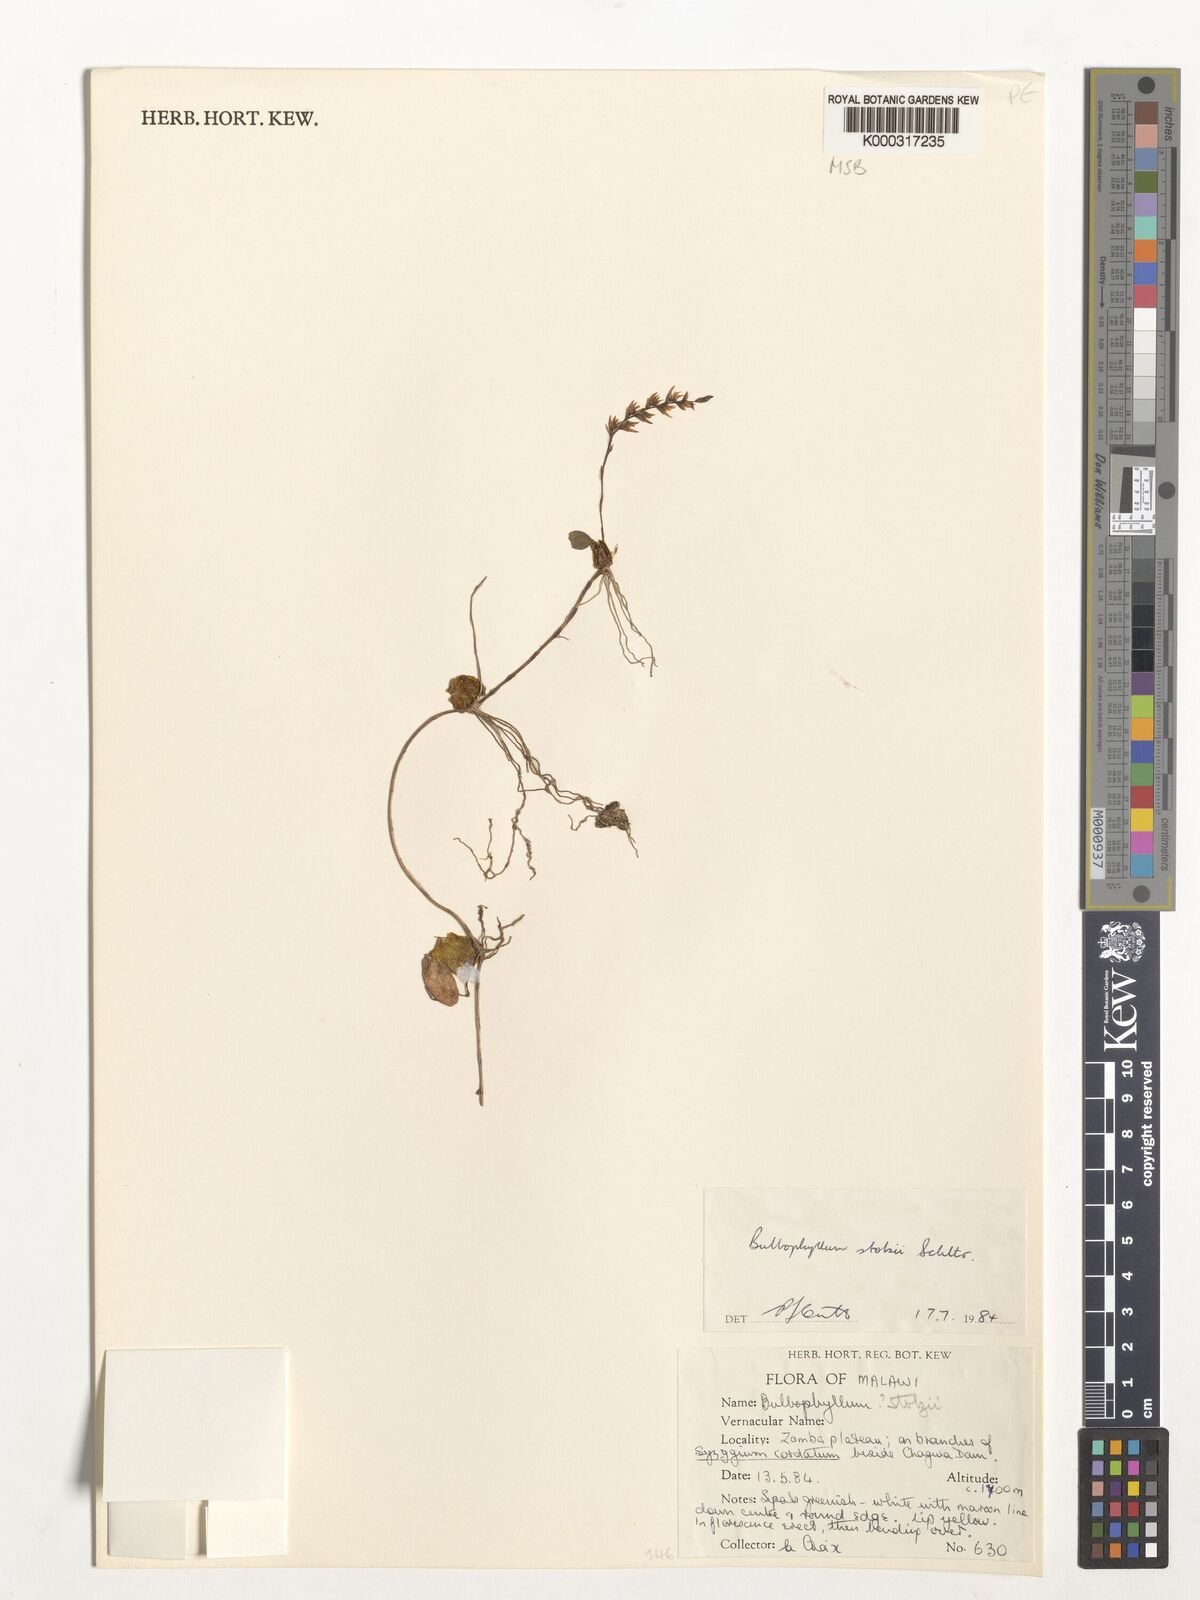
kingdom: Plantae
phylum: Tracheophyta
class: Liliopsida
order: Asparagales
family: Orchidaceae
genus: Bulbophyllum
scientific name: Bulbophyllum stolzii
